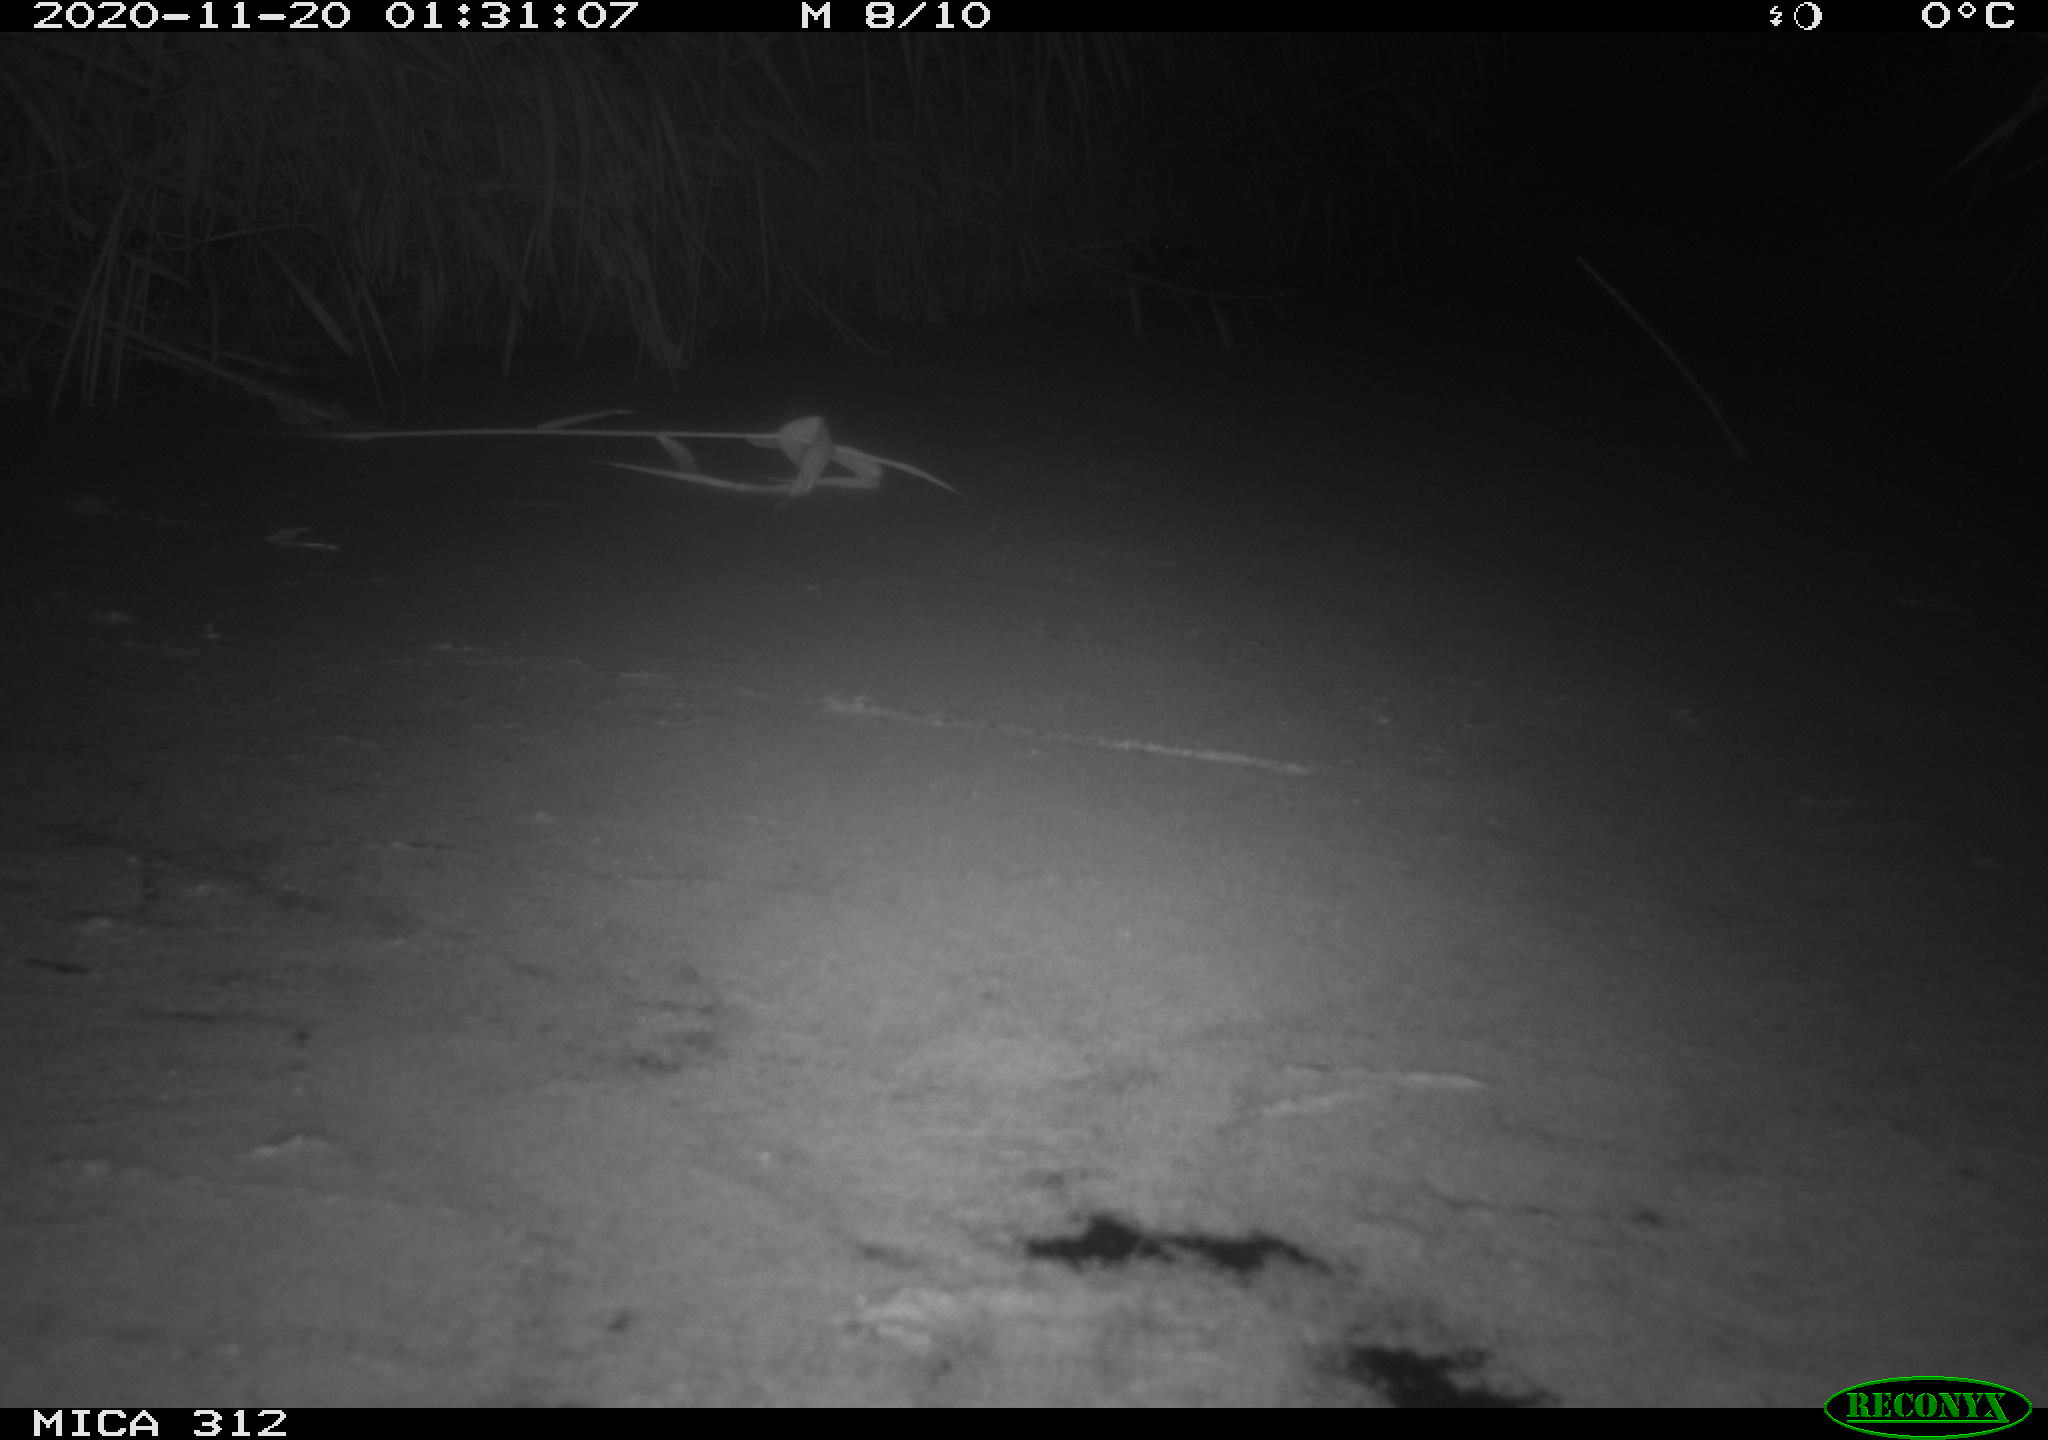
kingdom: Animalia
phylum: Chordata
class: Mammalia
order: Rodentia
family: Muridae
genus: Rattus
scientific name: Rattus norvegicus
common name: Brown rat
